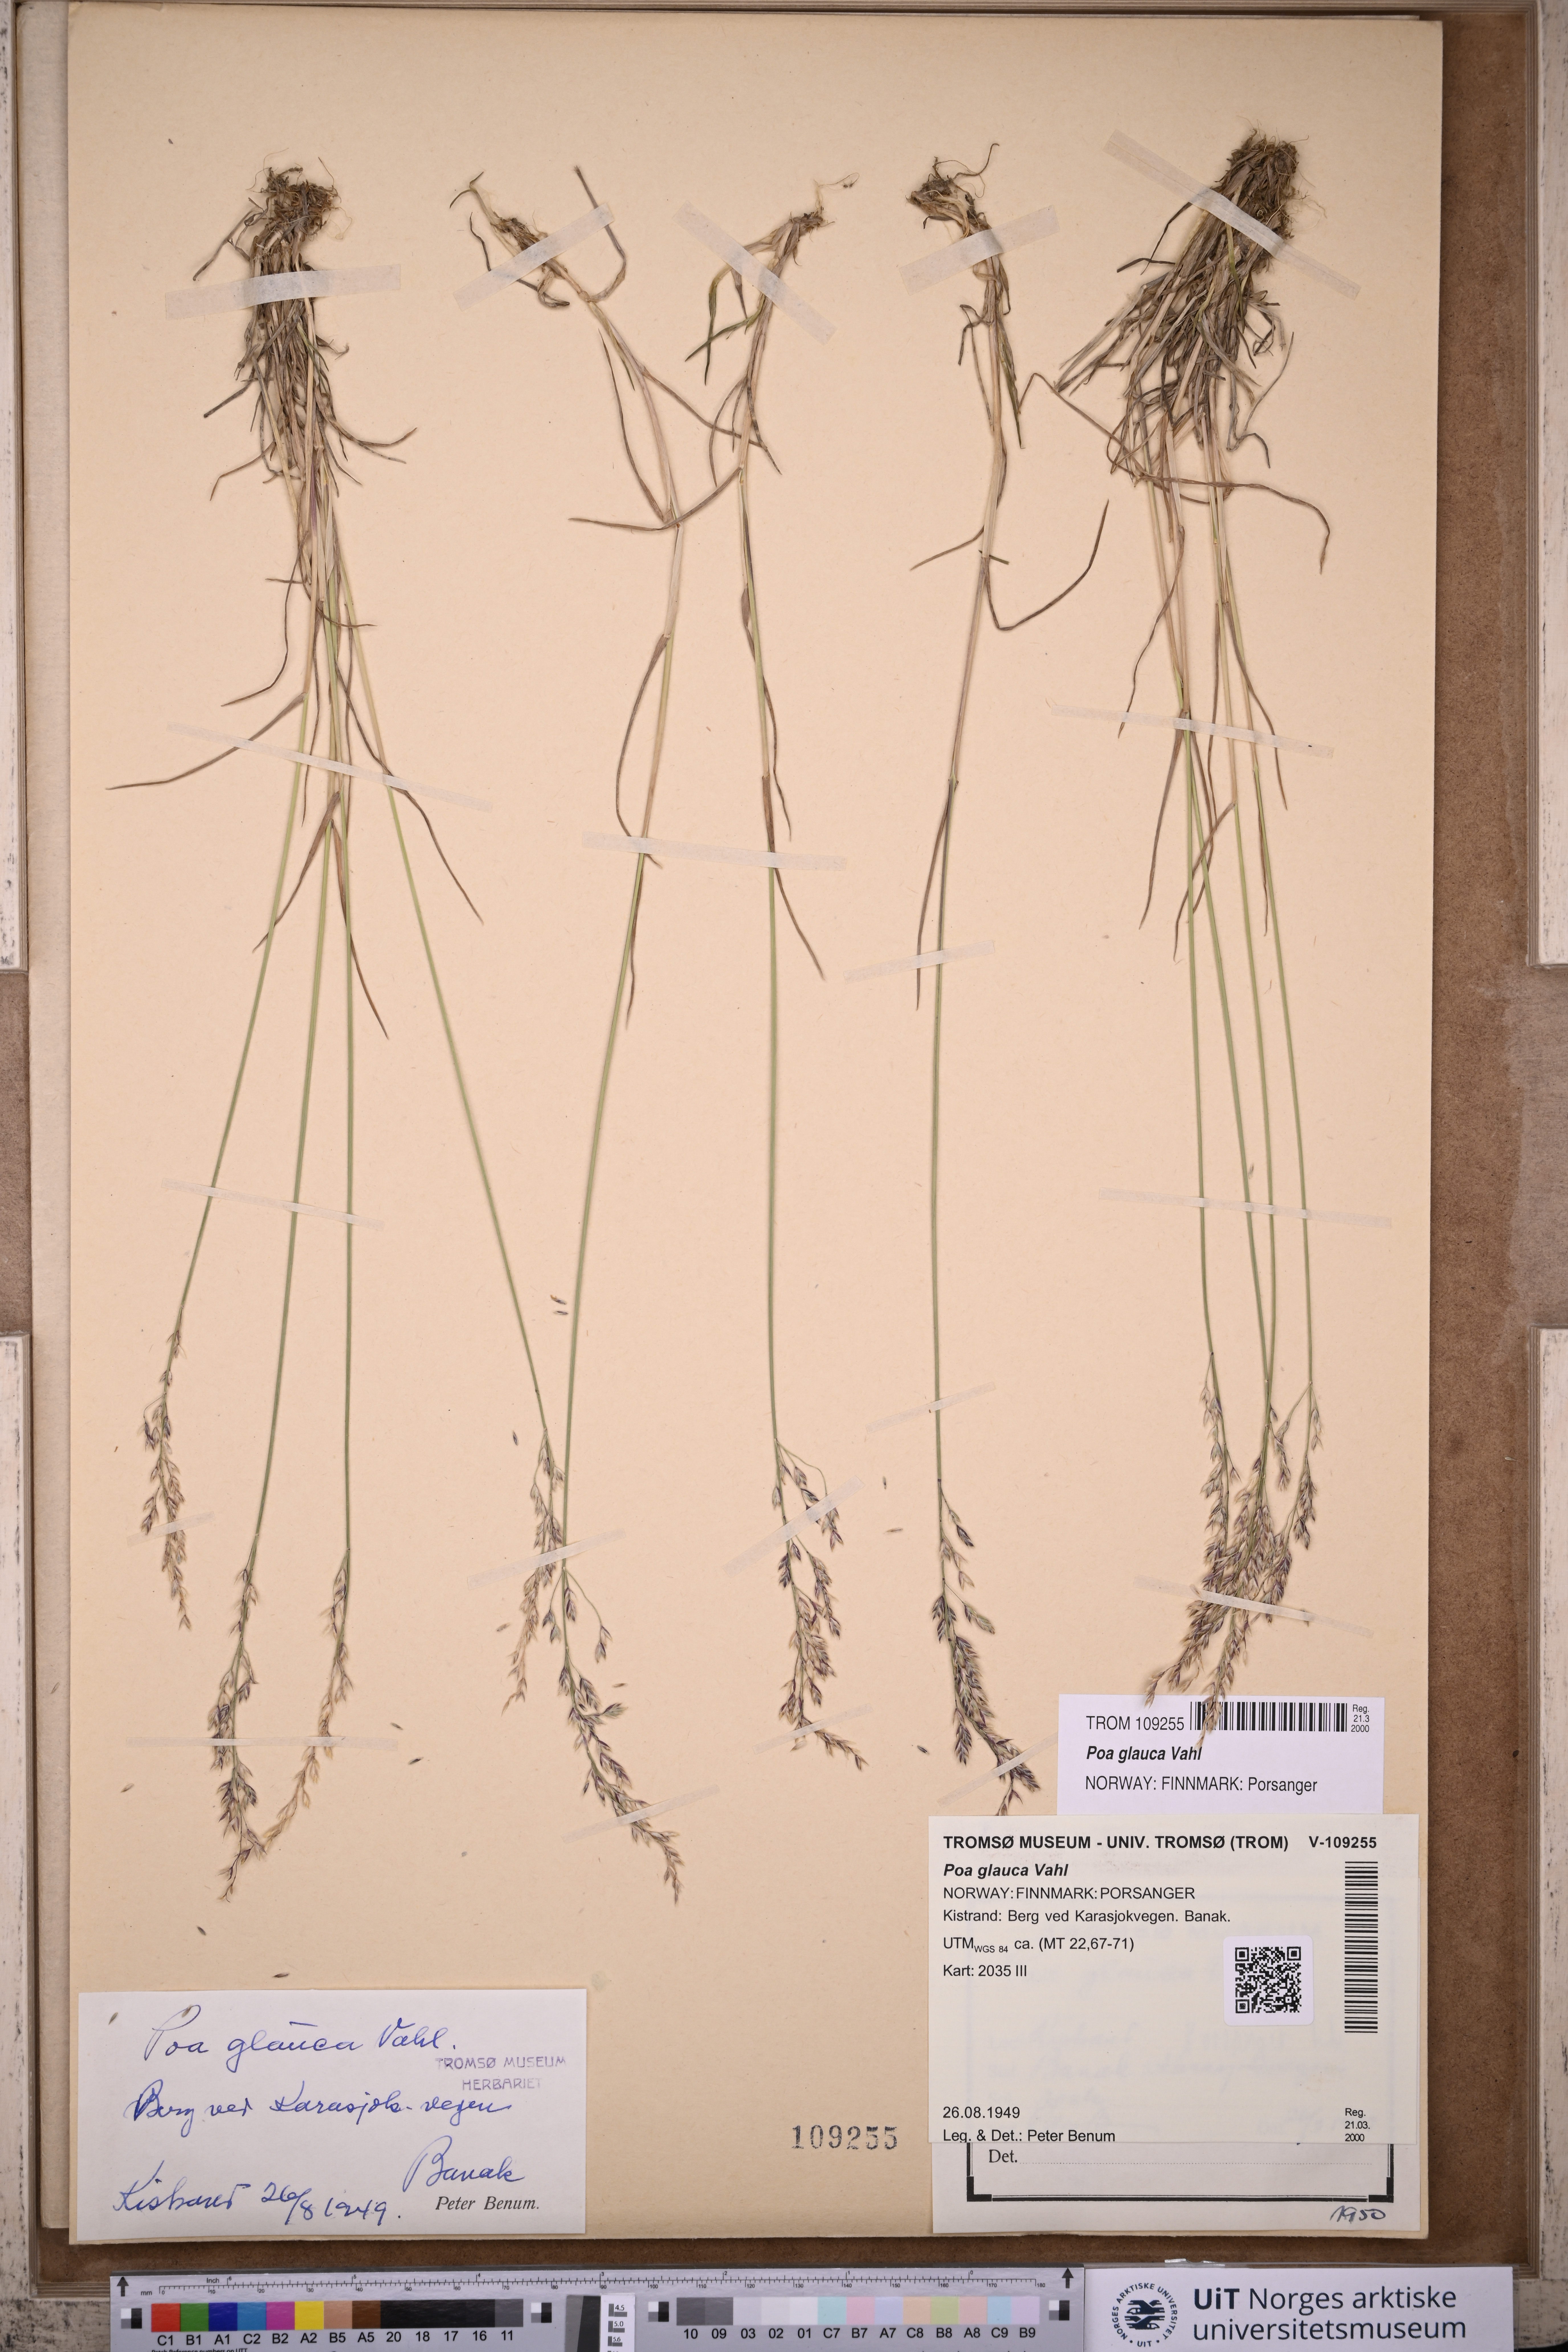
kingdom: Plantae
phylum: Tracheophyta
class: Liliopsida
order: Poales
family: Poaceae
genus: Poa
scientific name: Poa glauca
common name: Glaucous bluegrass
